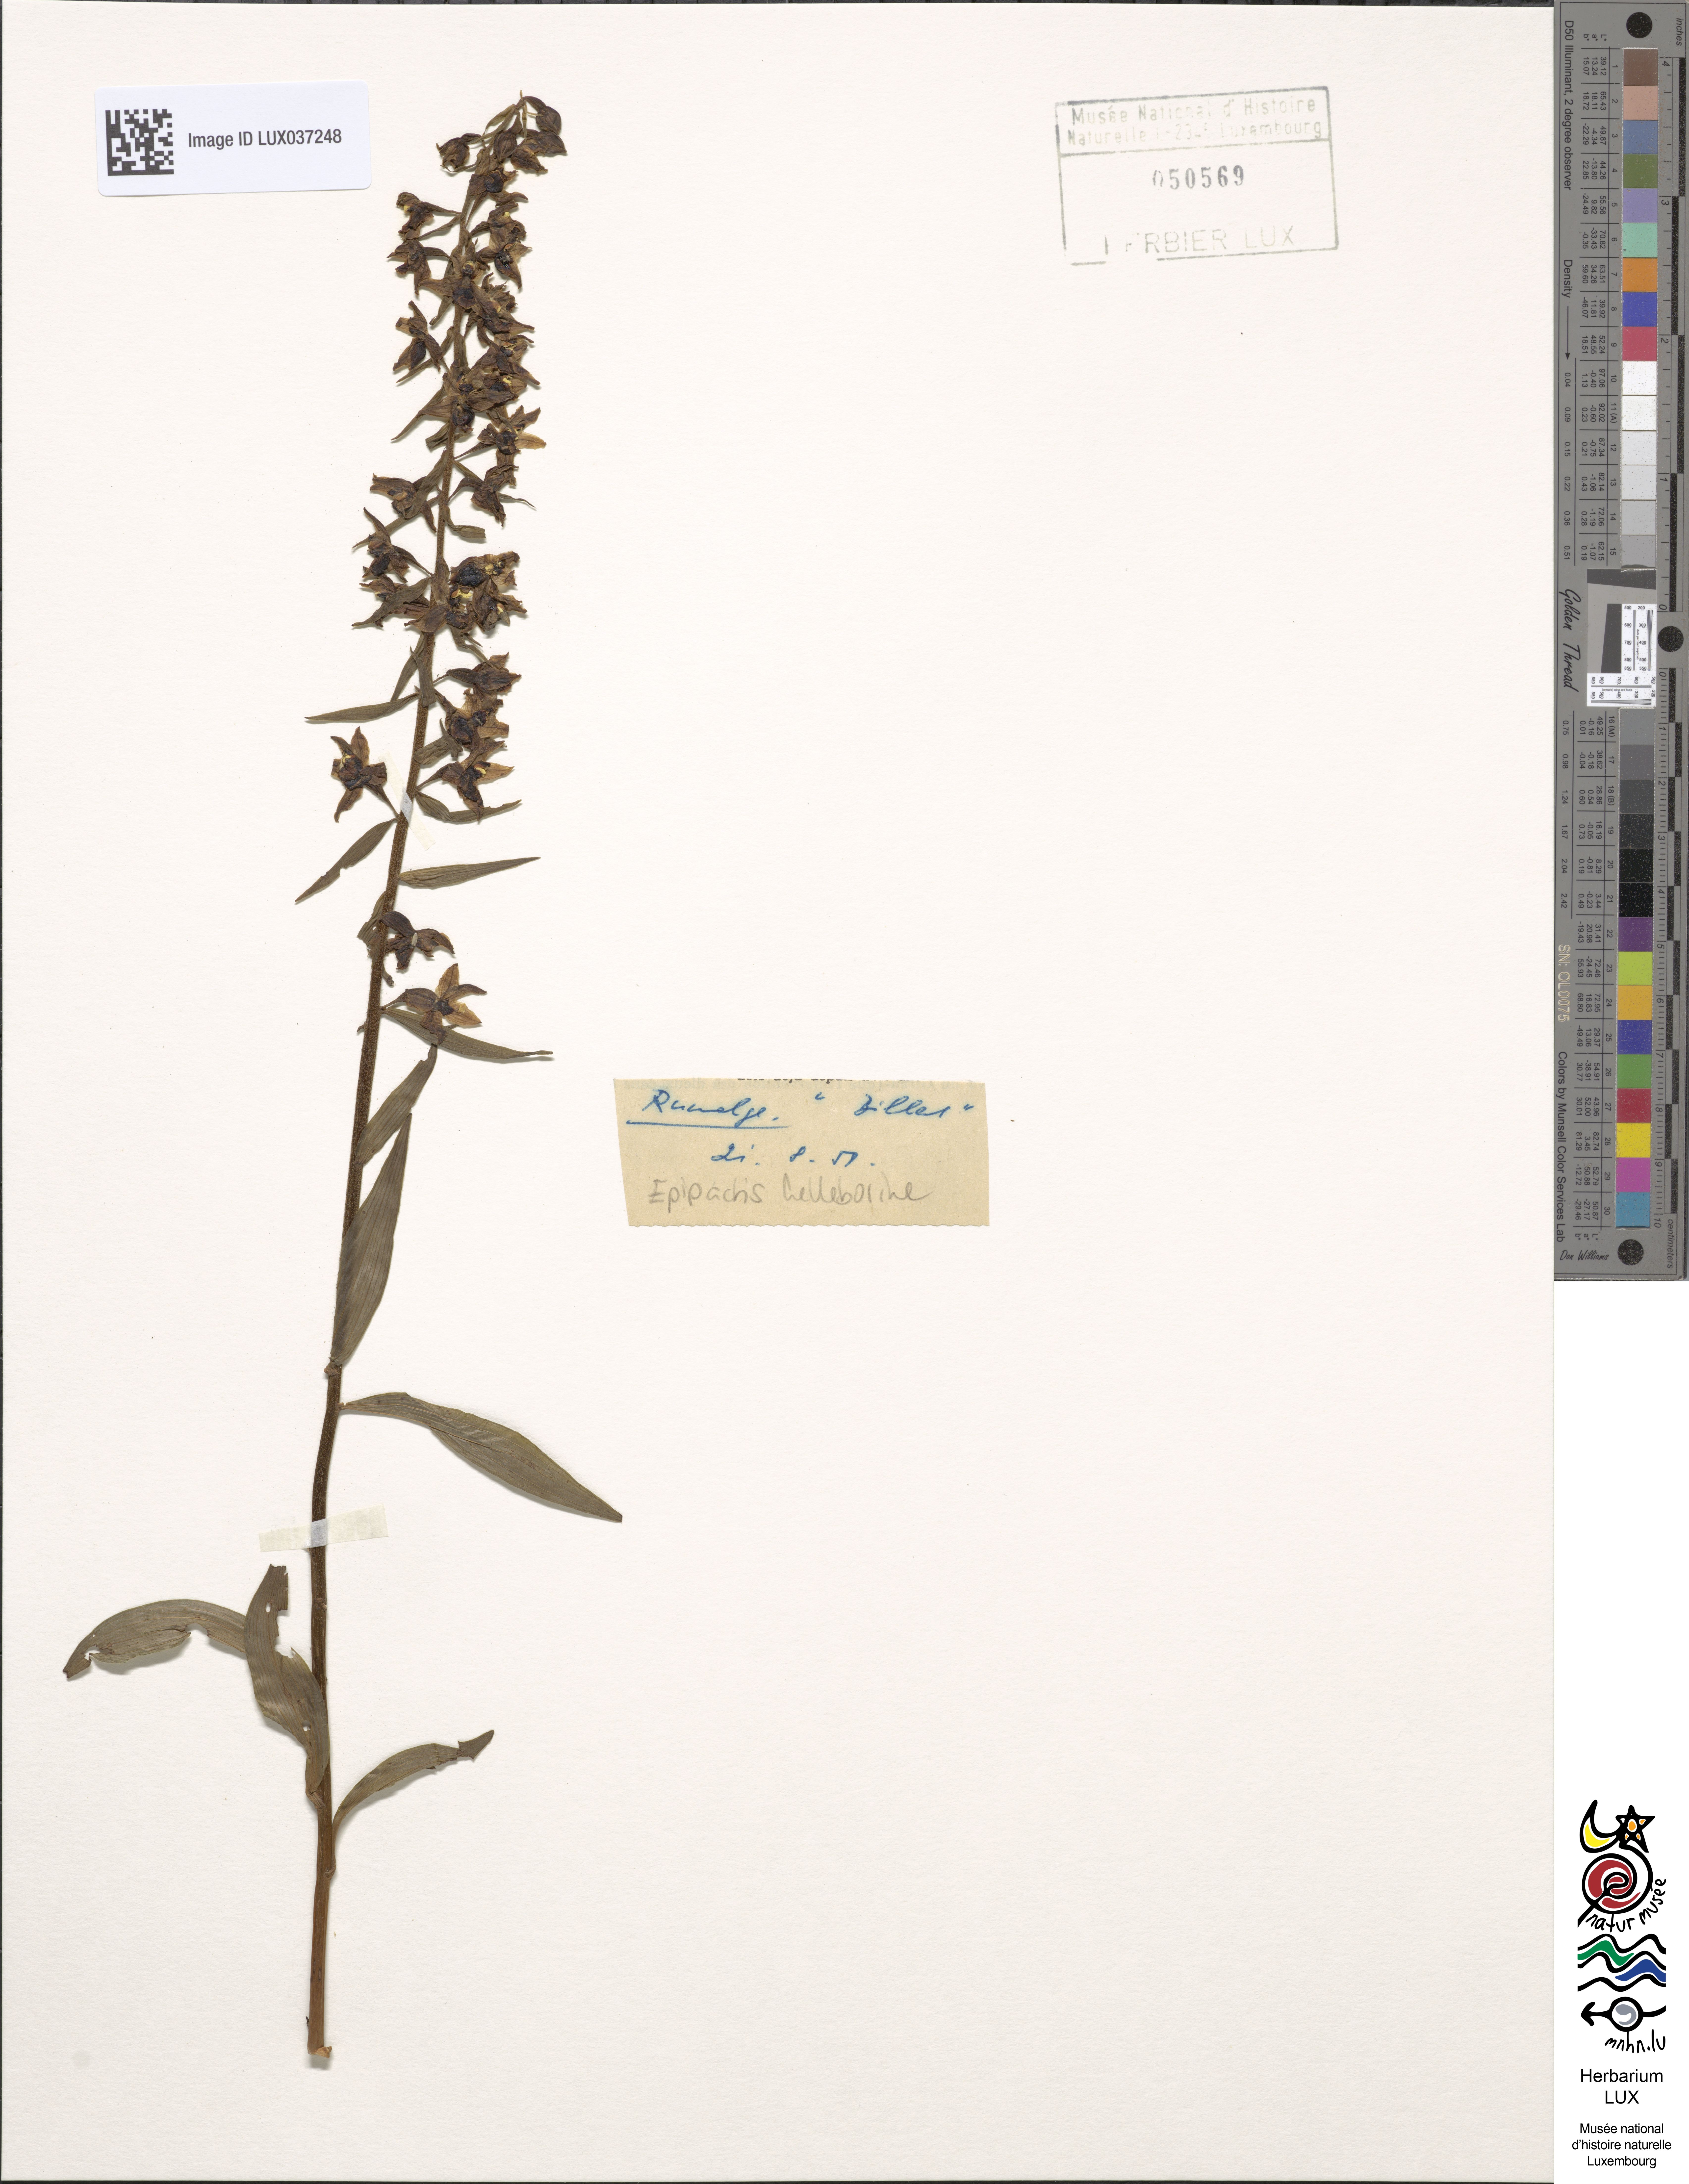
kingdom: Plantae
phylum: Tracheophyta
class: Liliopsida
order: Asparagales
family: Orchidaceae
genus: Epipactis
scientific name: Epipactis helleborine
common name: Broad-leaved helleborine
